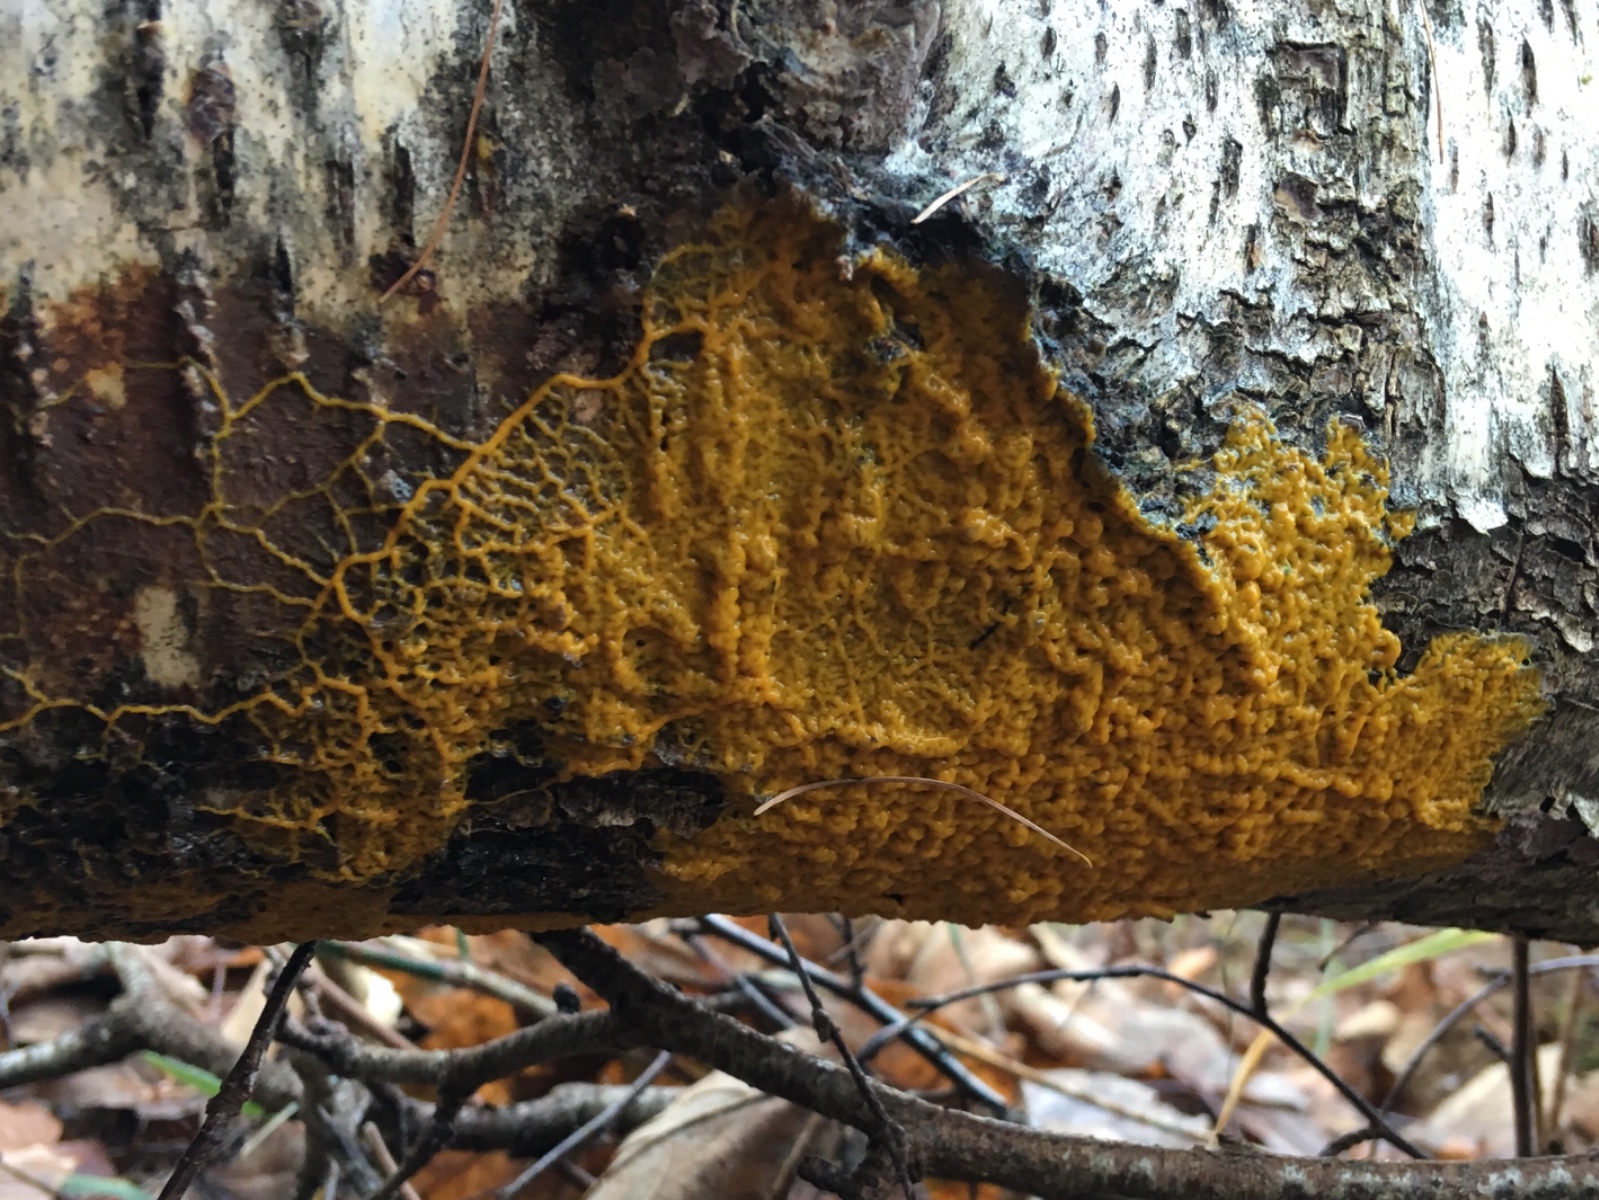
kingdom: Protozoa
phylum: Mycetozoa
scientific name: Mycetozoa
